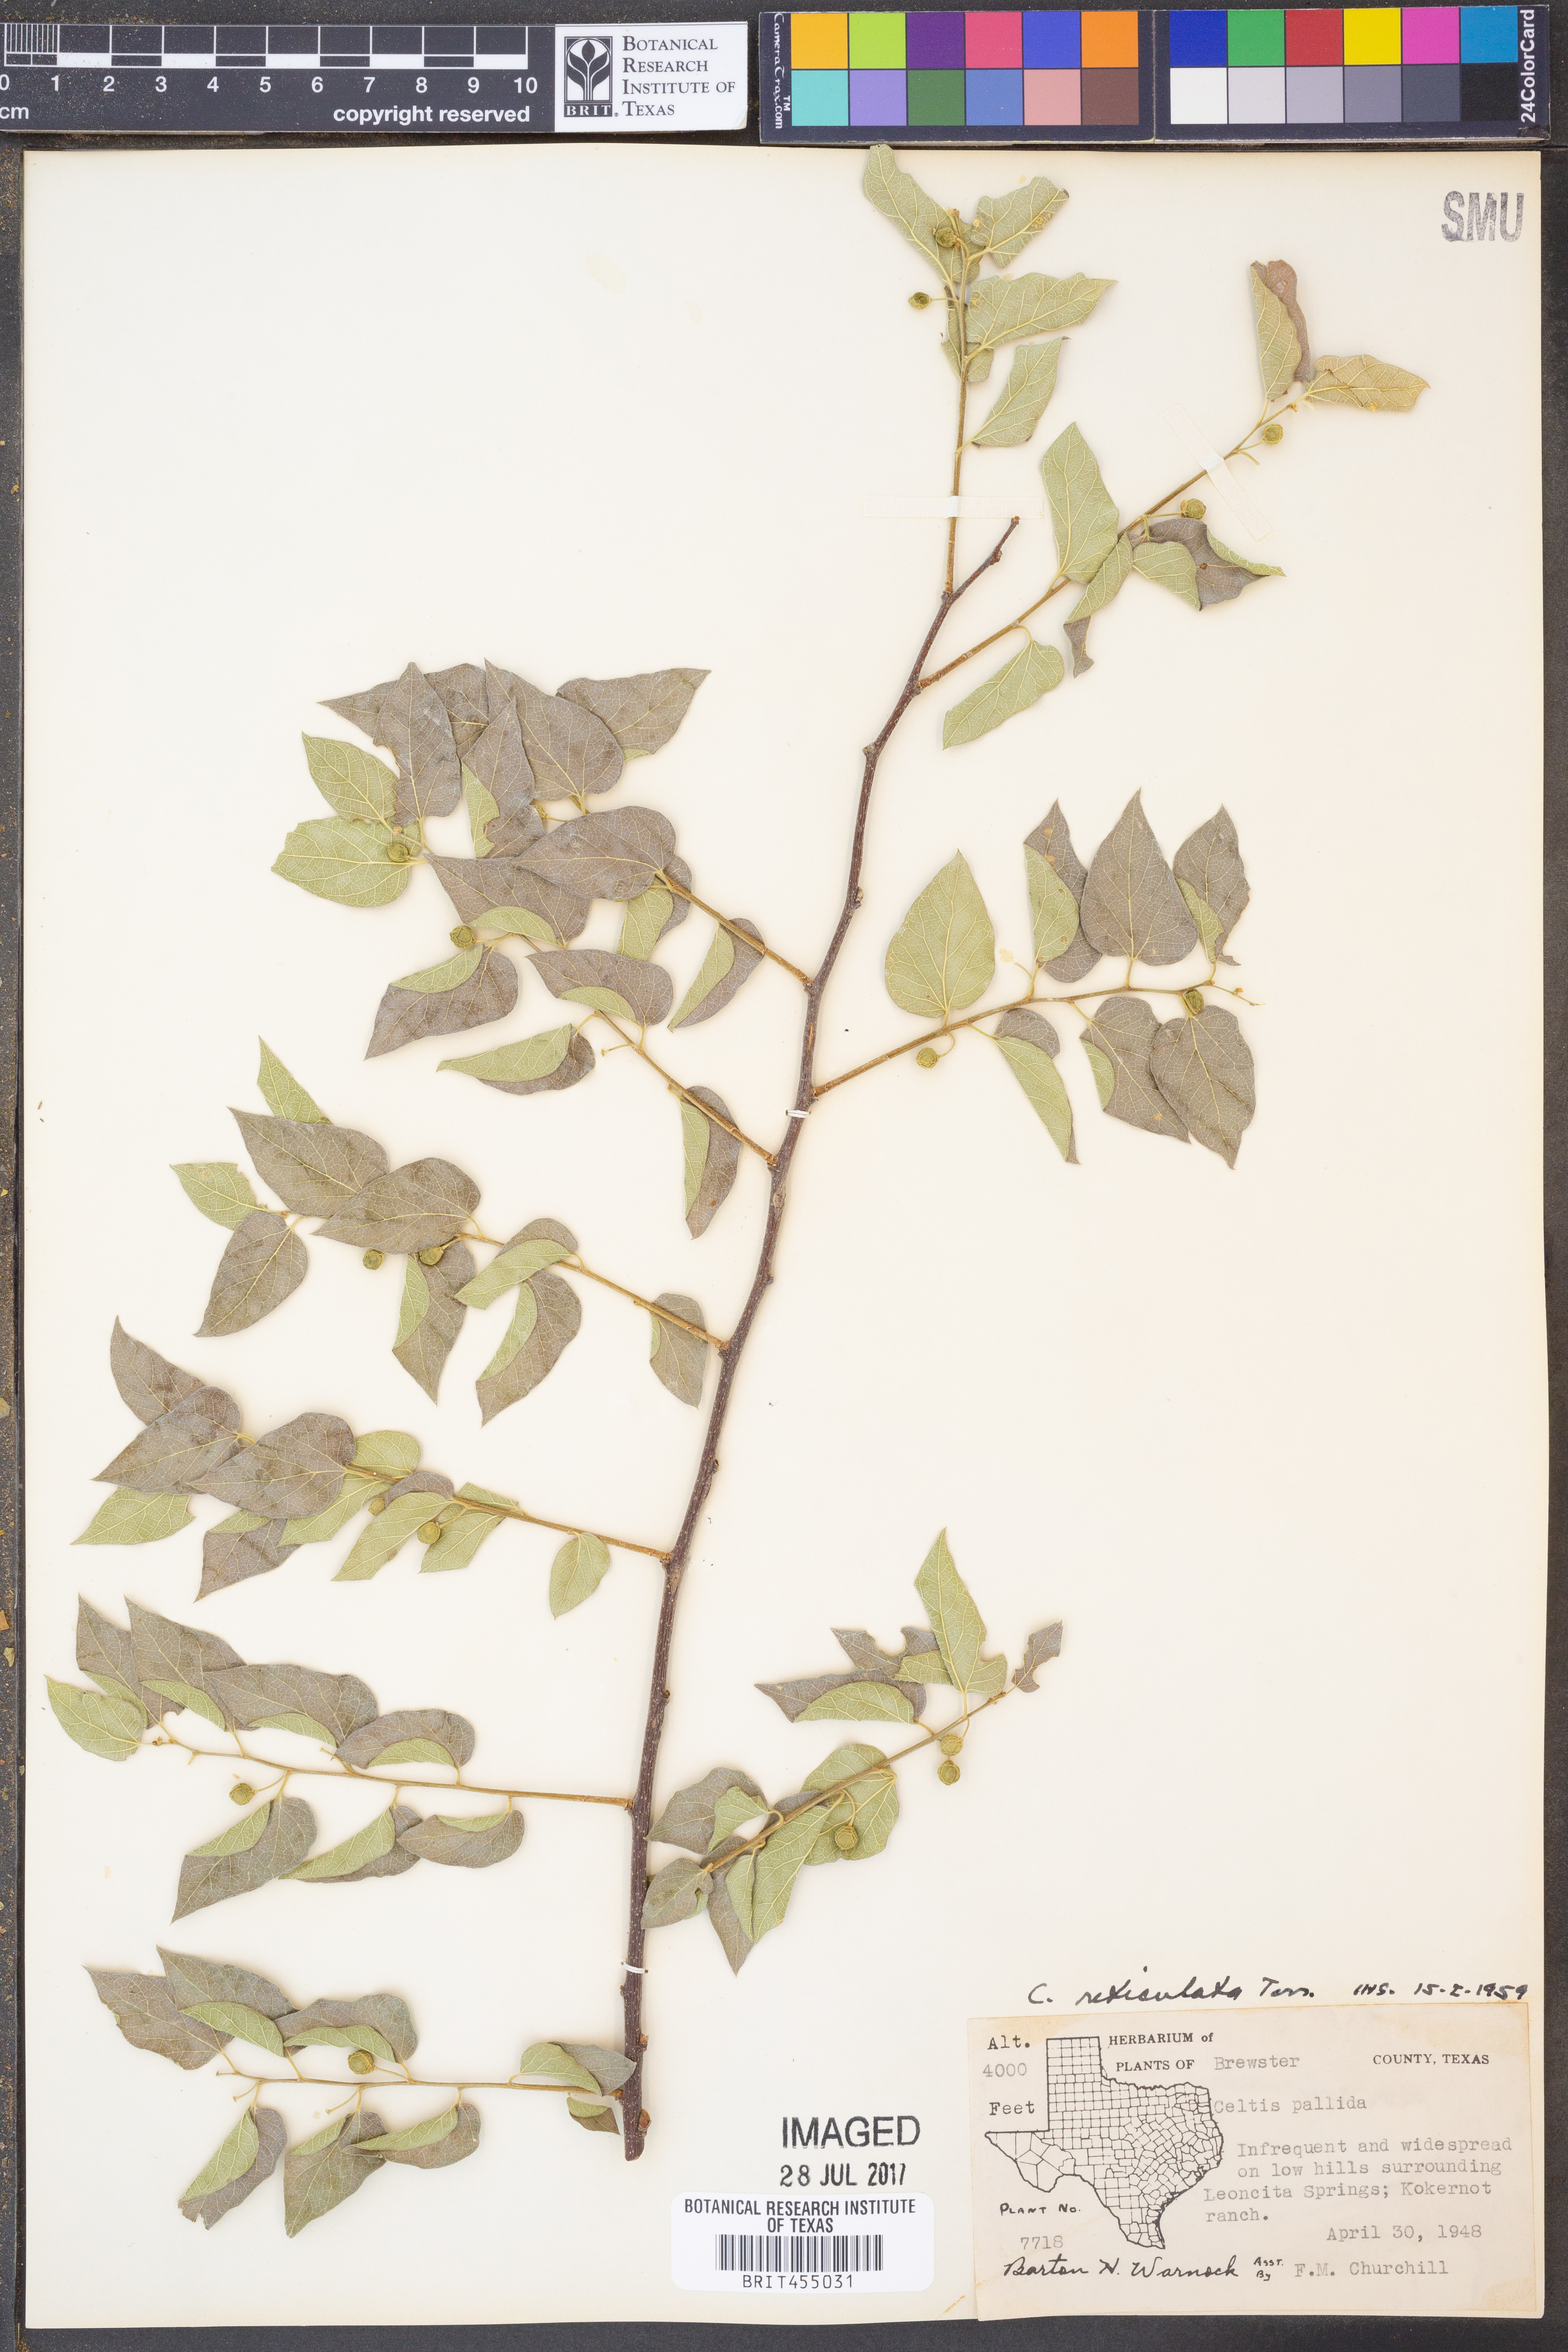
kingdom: Plantae
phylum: Tracheophyta
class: Magnoliopsida
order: Rosales
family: Cannabaceae
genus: Celtis
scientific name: Celtis reticulata
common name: Netleaf hackberry
